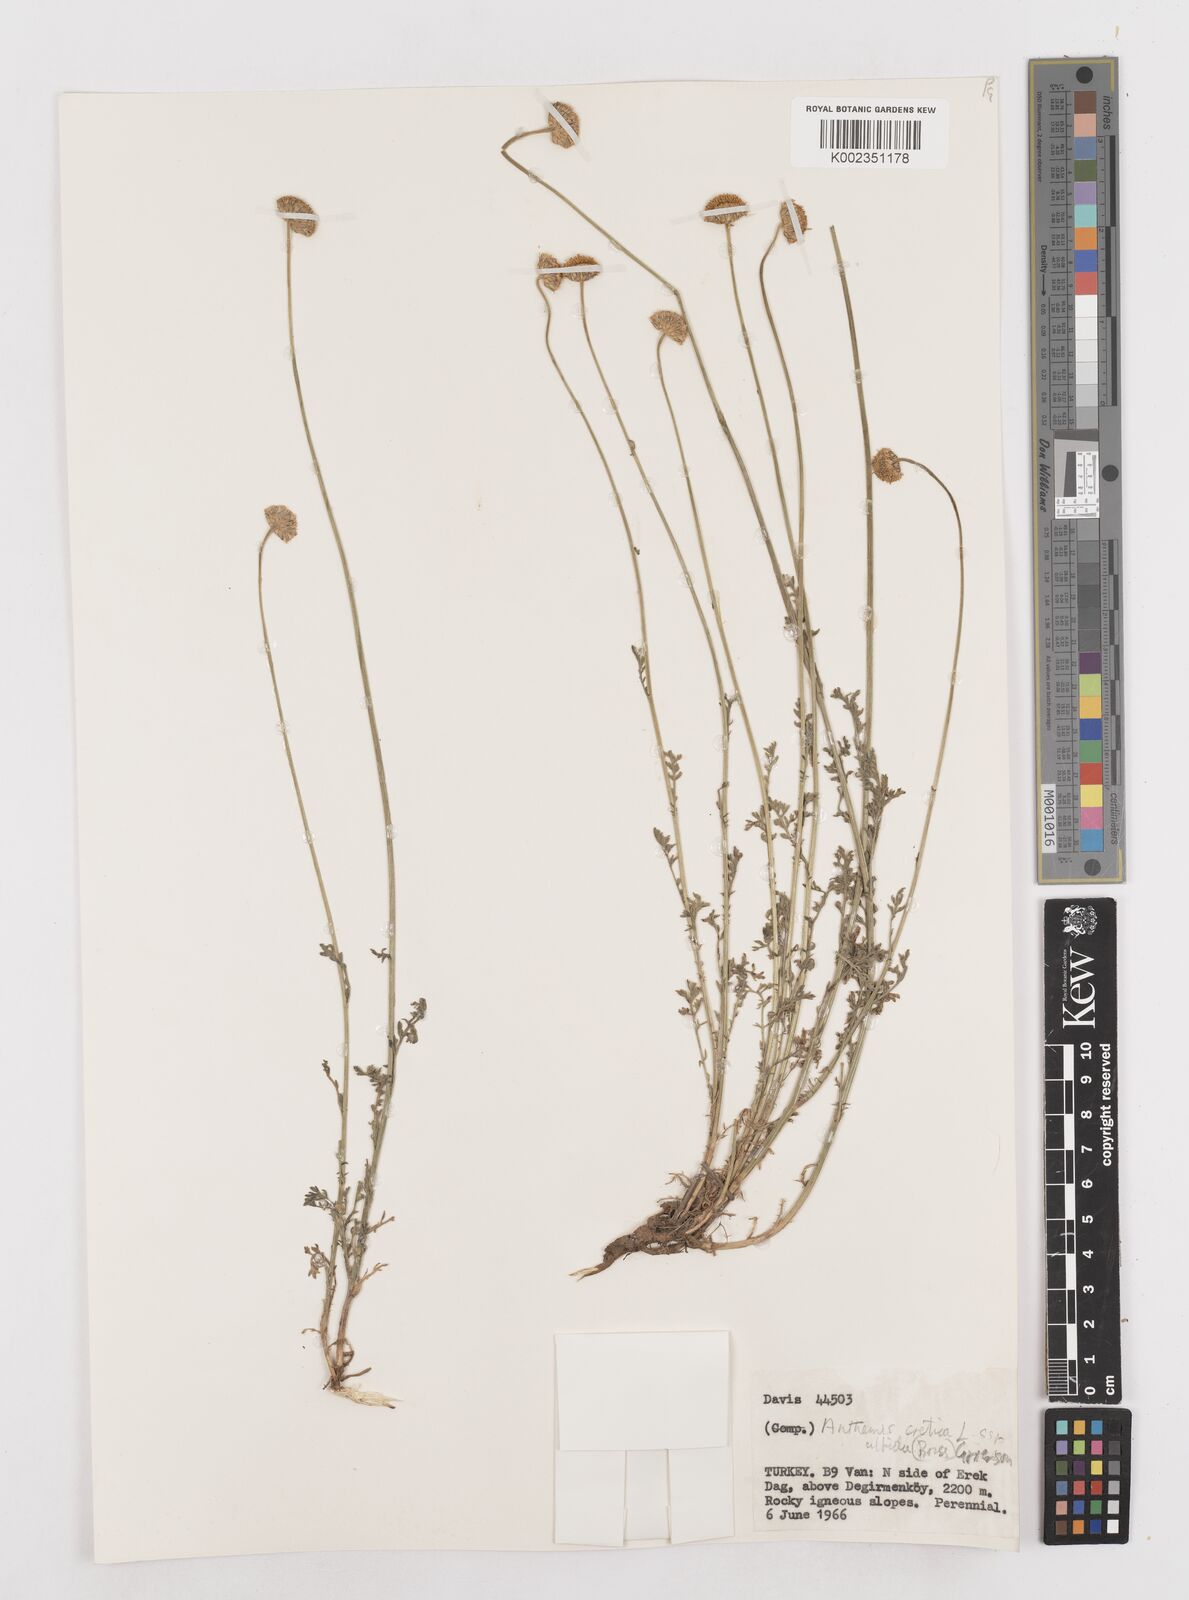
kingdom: Plantae
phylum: Tracheophyta
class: Magnoliopsida
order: Asterales
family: Asteraceae
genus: Anthemis
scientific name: Anthemis cretica
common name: Mountain dog-daisy
